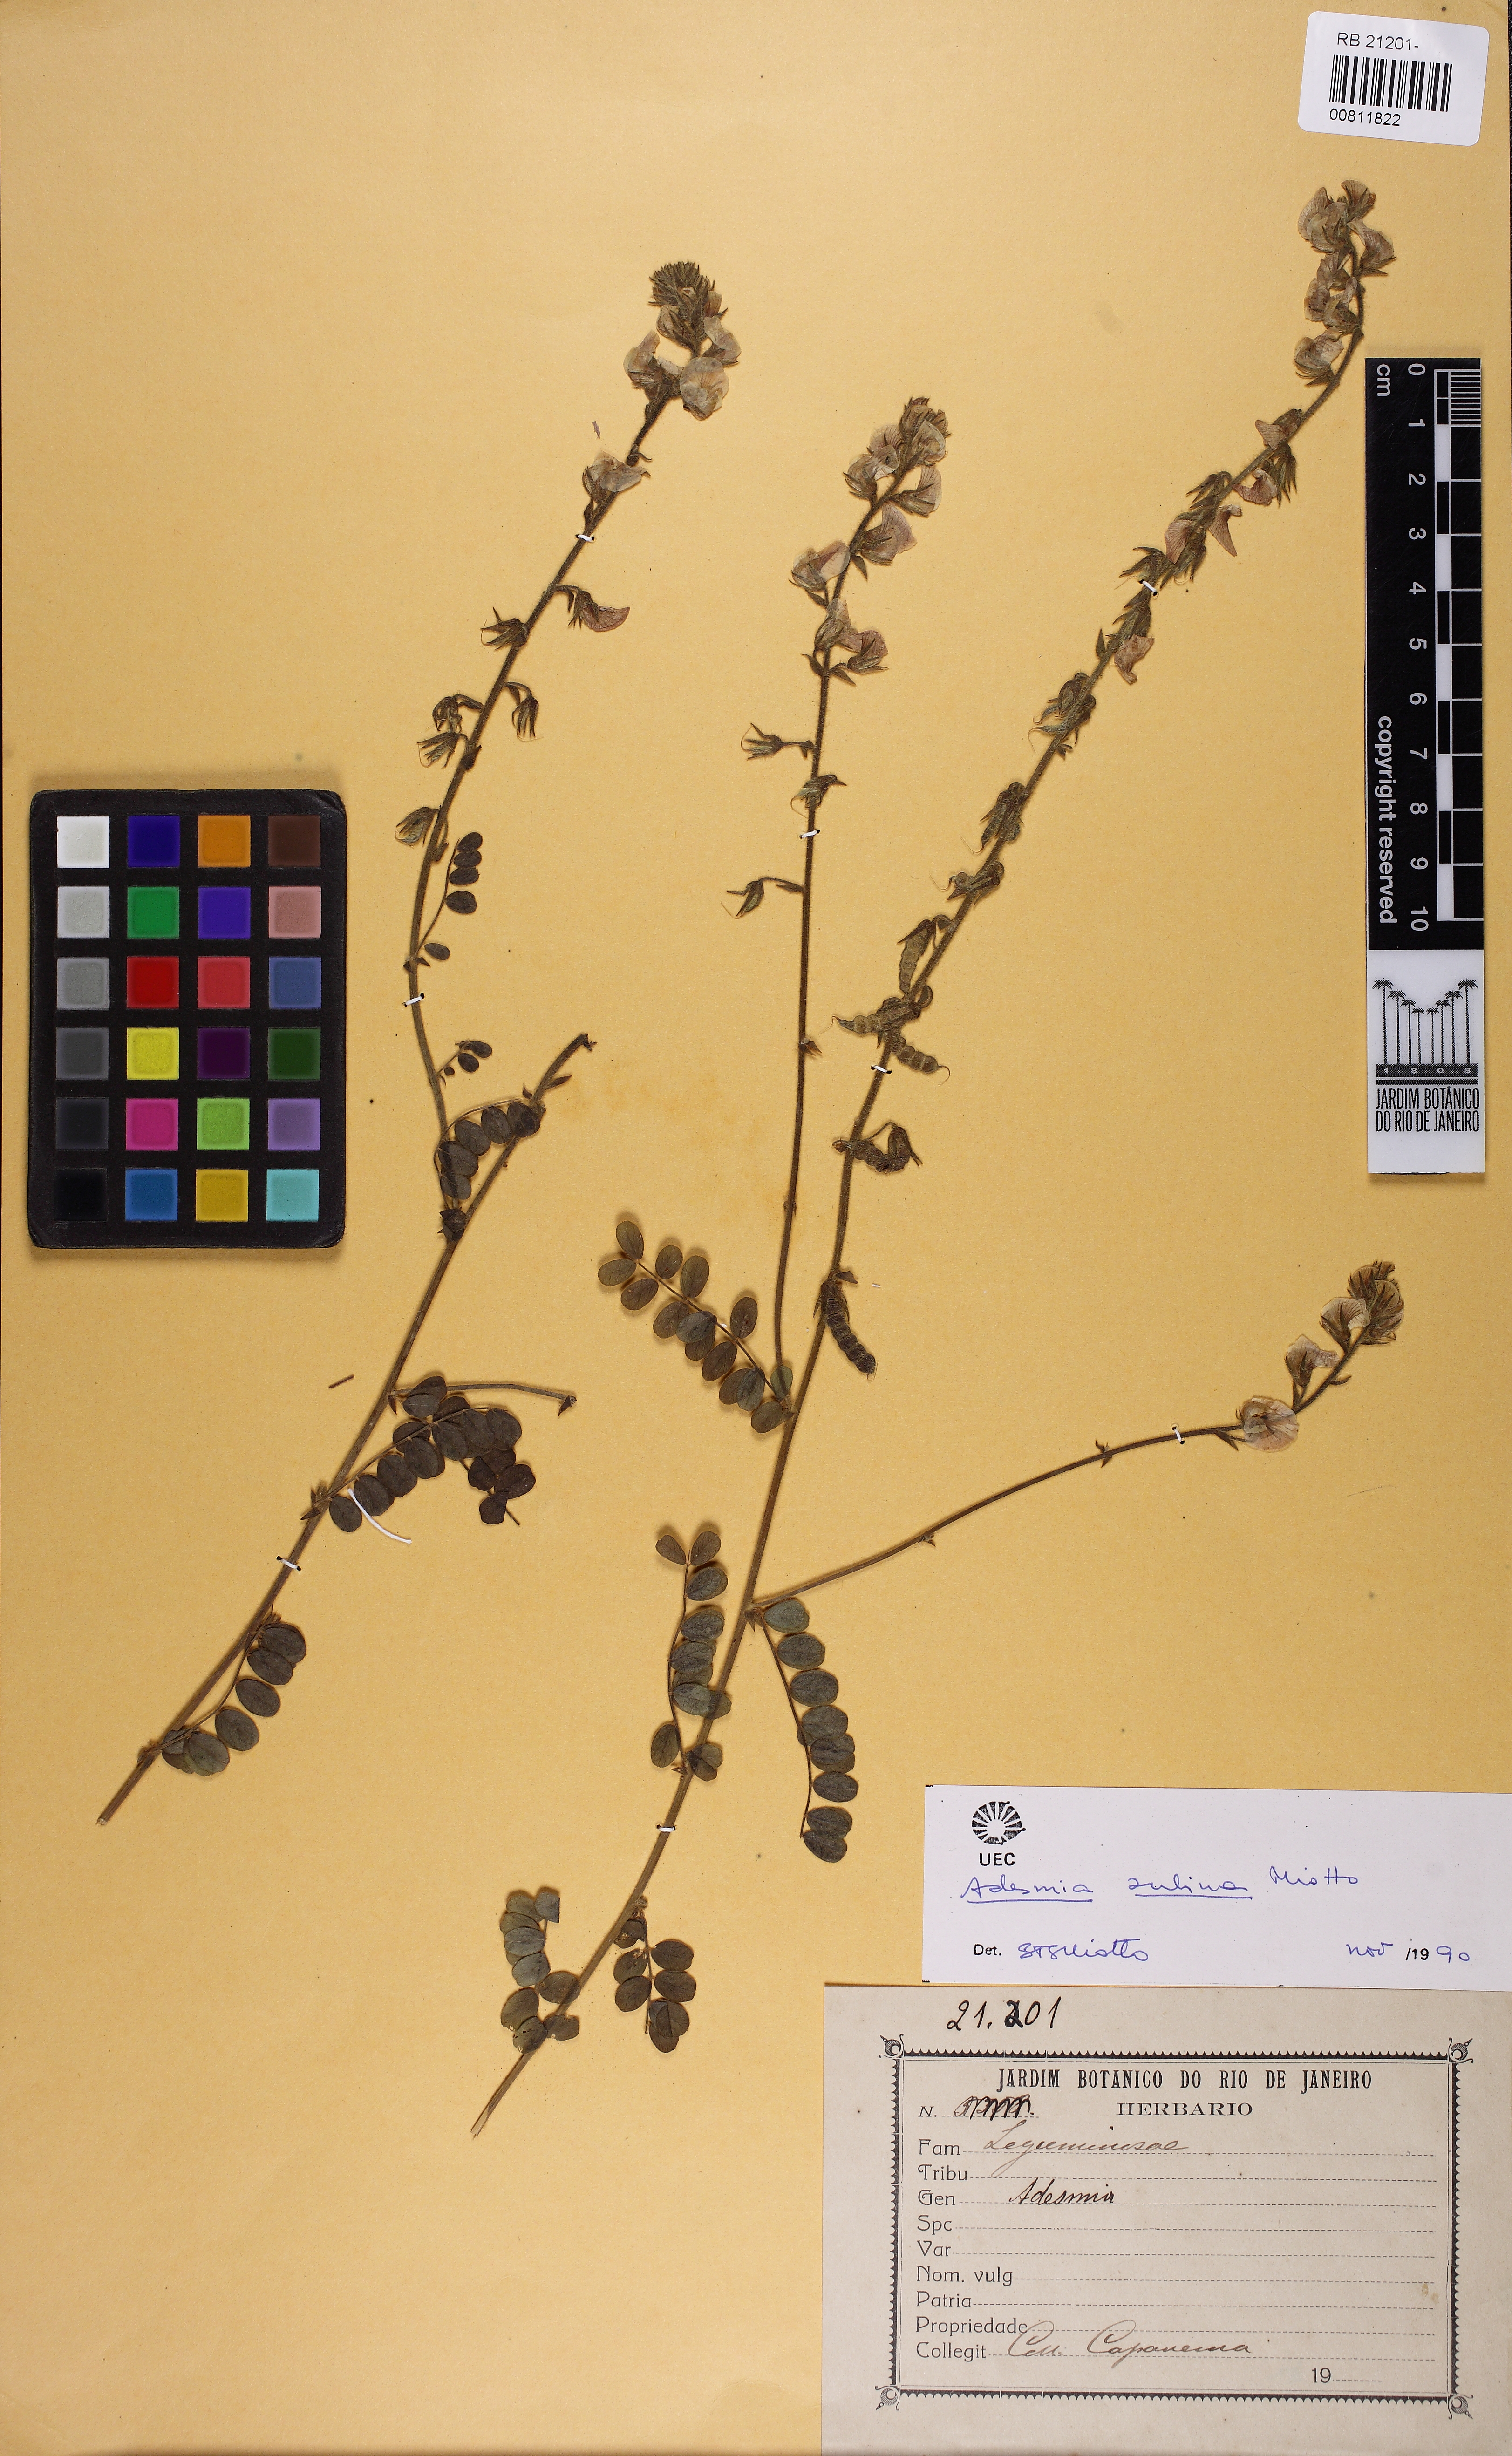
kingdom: Plantae
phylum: Tracheophyta
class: Magnoliopsida
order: Fabales
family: Fabaceae
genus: Adesmia
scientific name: Adesmia sulina
